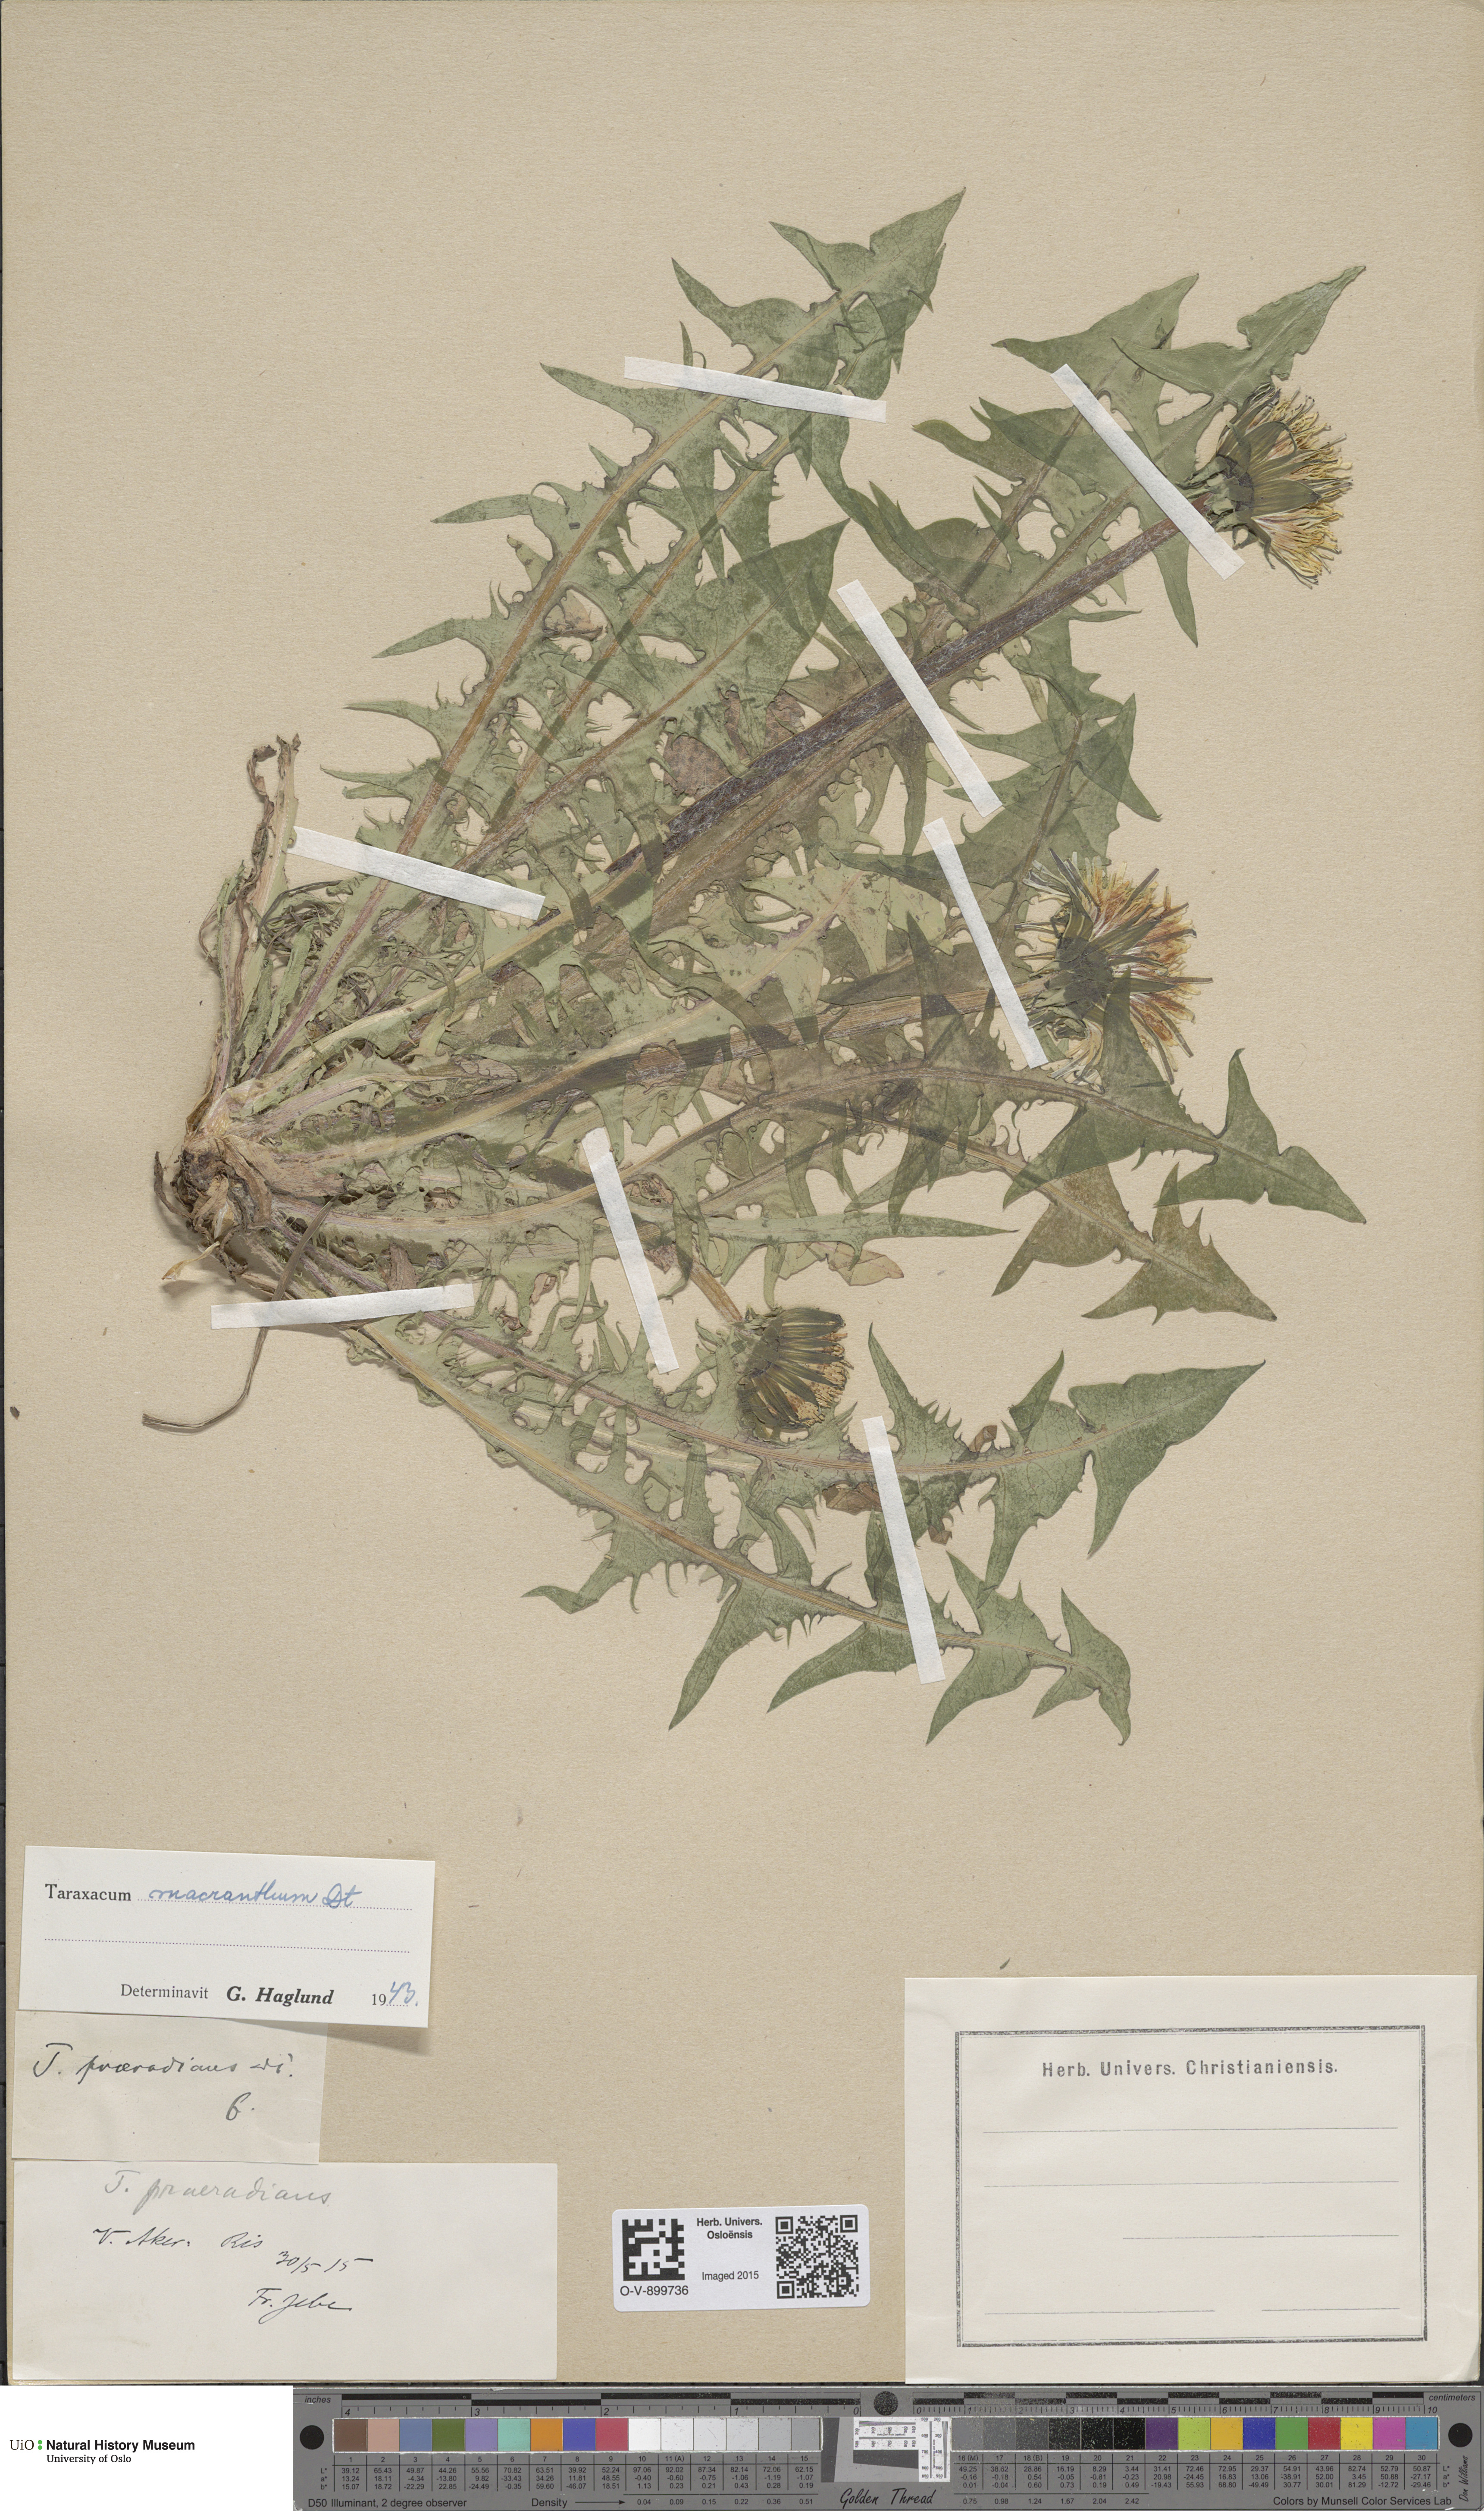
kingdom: Plantae
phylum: Tracheophyta
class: Magnoliopsida
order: Asterales
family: Asteraceae
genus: Taraxacum
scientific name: Taraxacum praeradians
